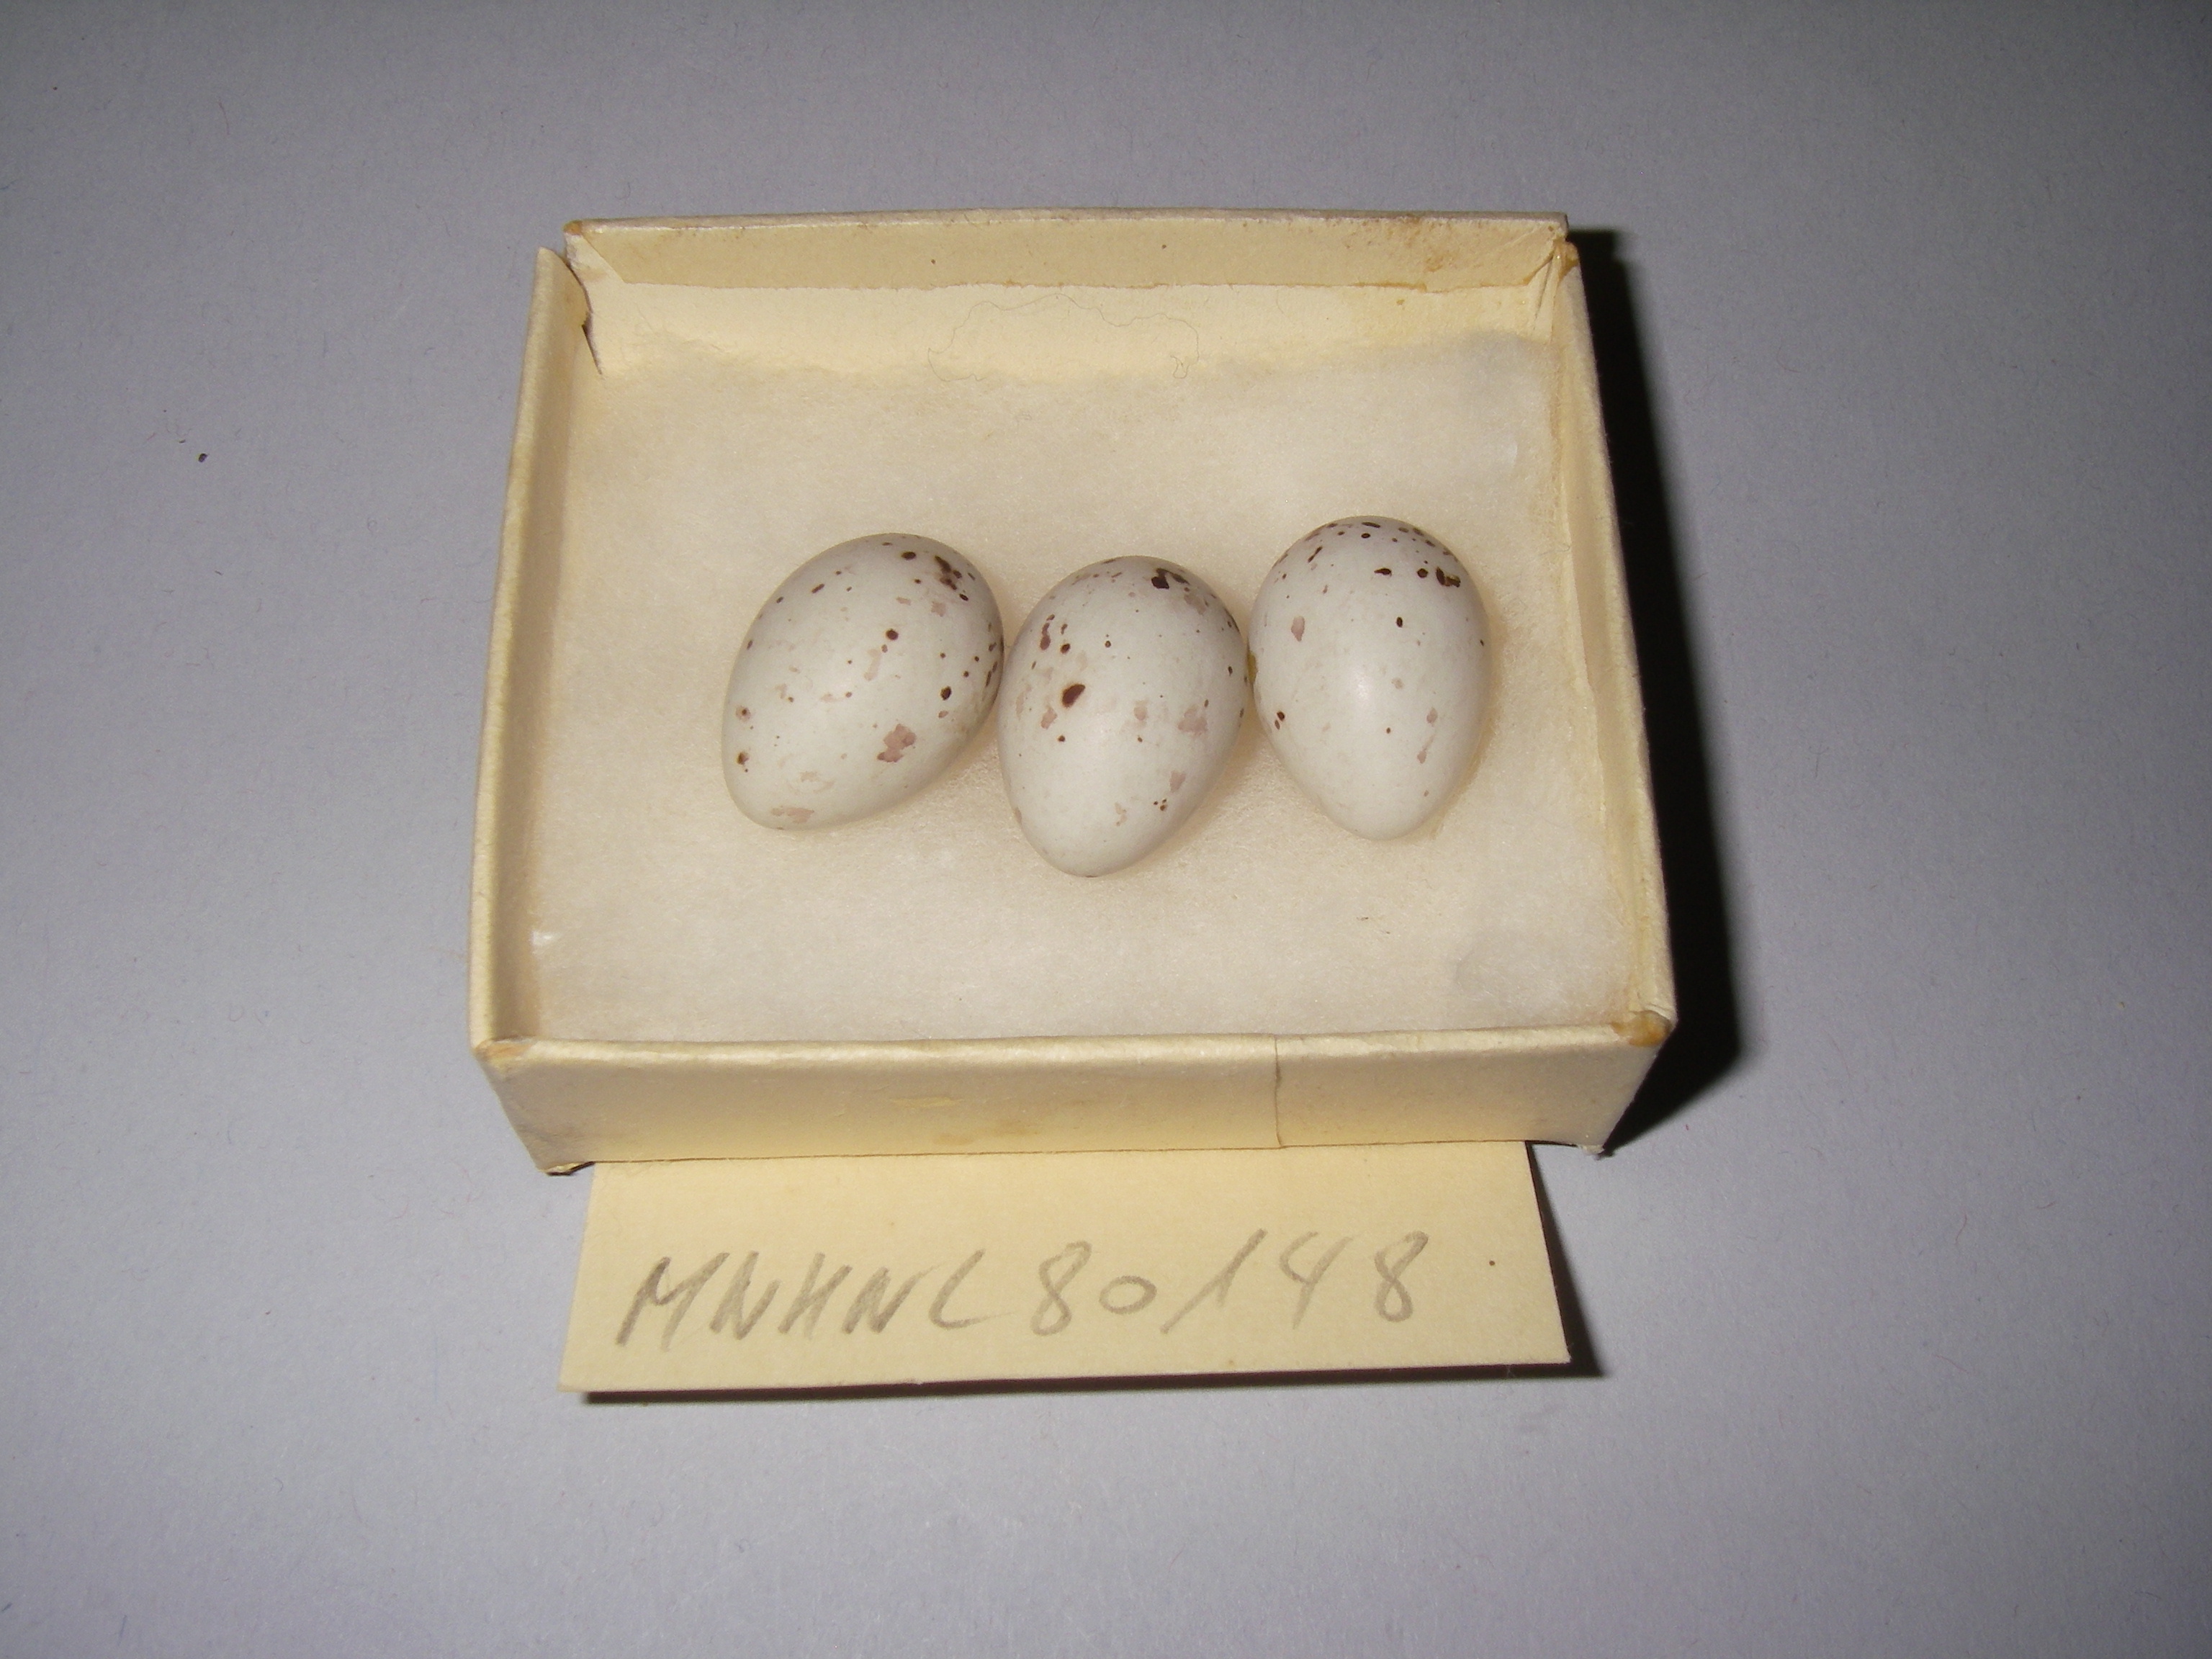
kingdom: Plantae
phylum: Tracheophyta
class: Liliopsida
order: Poales
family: Poaceae
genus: Chloris
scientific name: Chloris chloris
